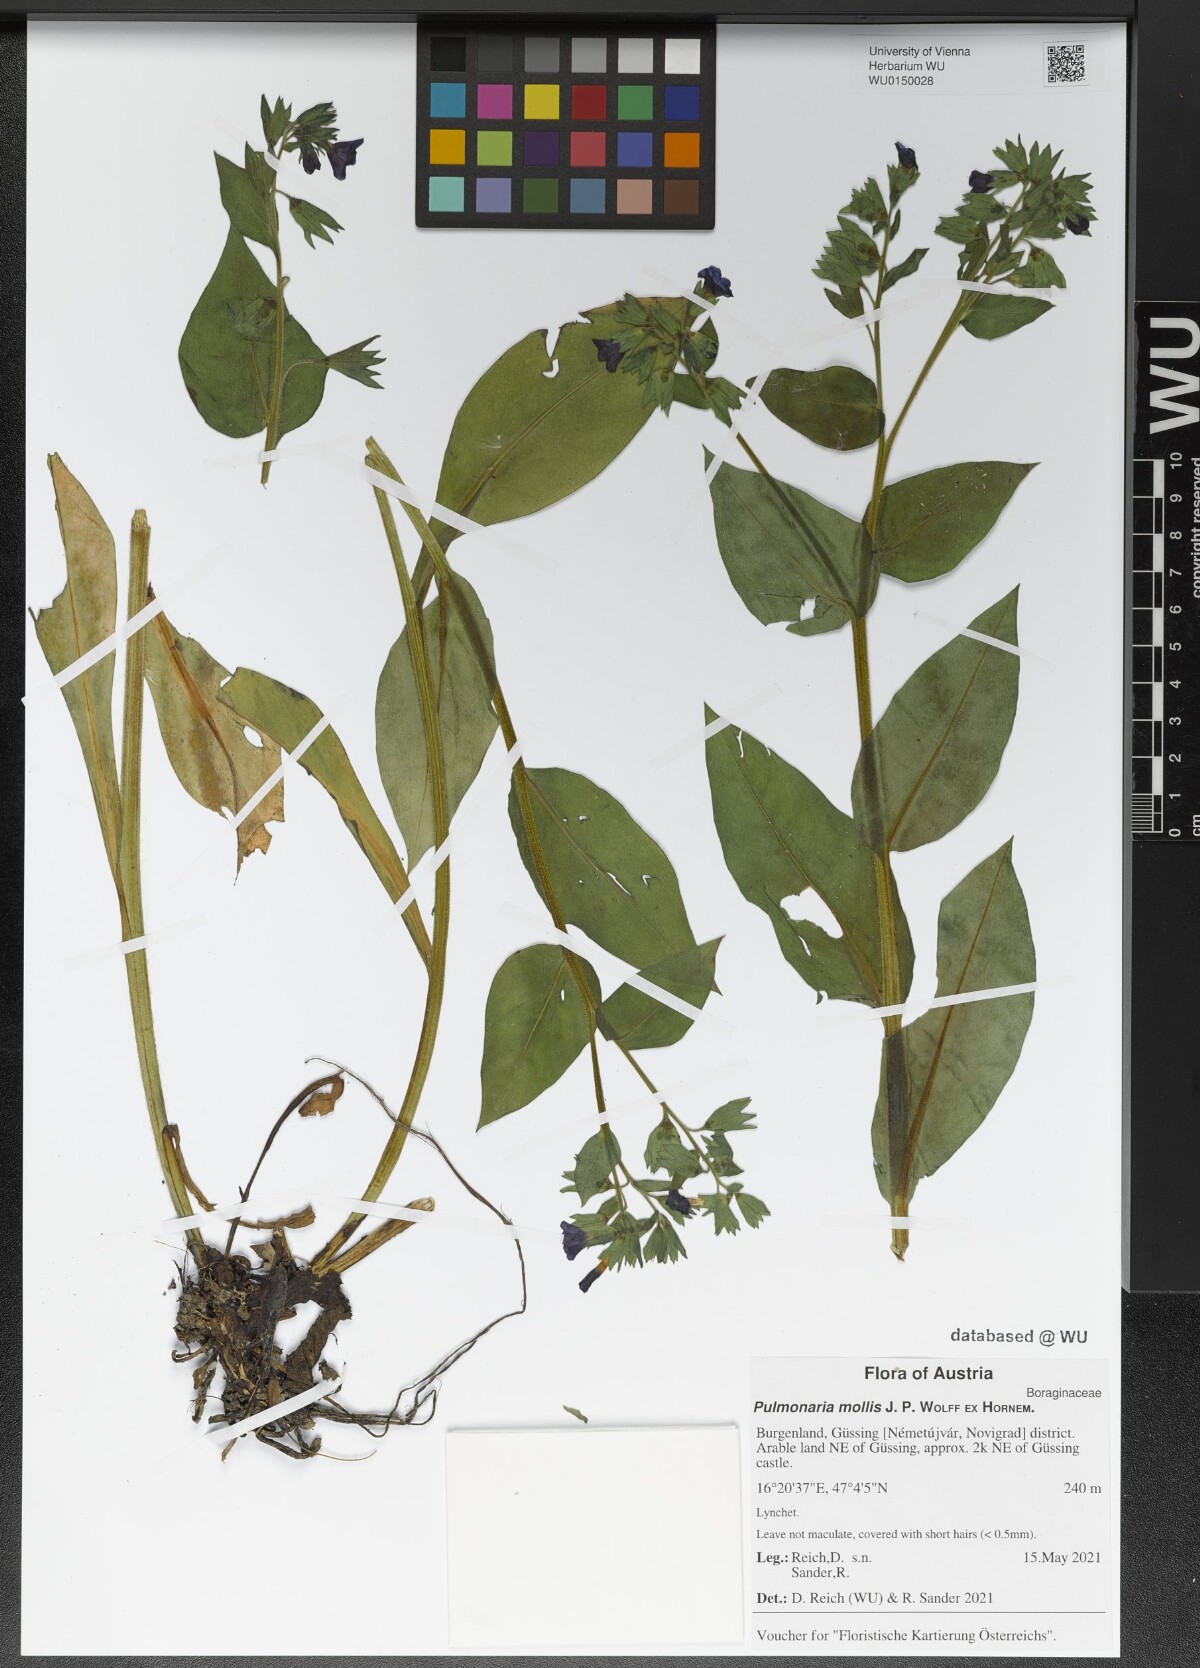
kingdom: Plantae
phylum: Tracheophyta
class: Magnoliopsida
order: Boraginales
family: Boraginaceae
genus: Pulmonaria
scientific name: Pulmonaria mollis
